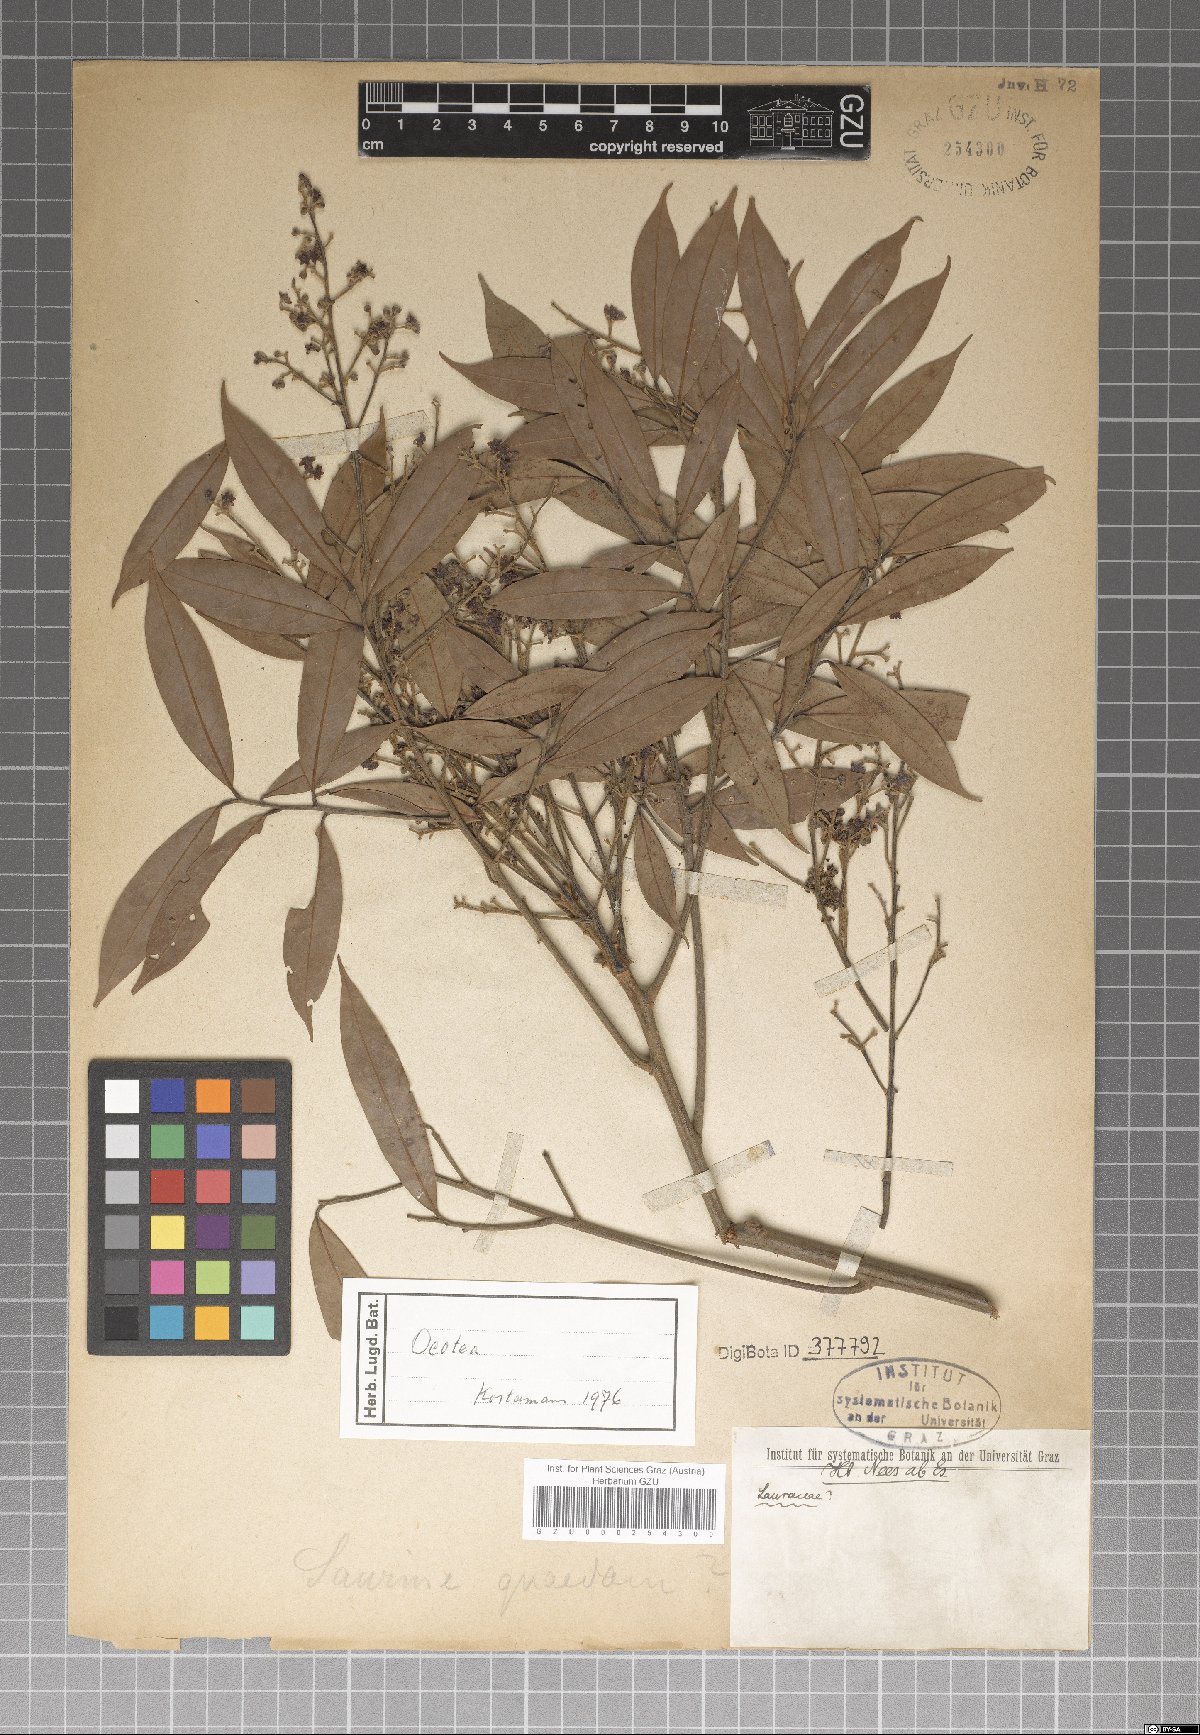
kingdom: Plantae
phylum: Tracheophyta
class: Magnoliopsida
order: Laurales
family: Lauraceae
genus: Ocotea
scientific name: Ocotea
